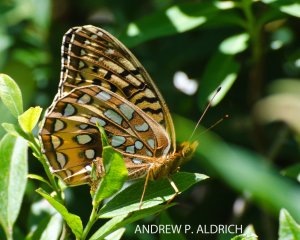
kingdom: Animalia
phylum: Arthropoda
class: Insecta
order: Lepidoptera
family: Nymphalidae
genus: Speyeria
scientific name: Speyeria cybele
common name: Great Spangled Fritillary
